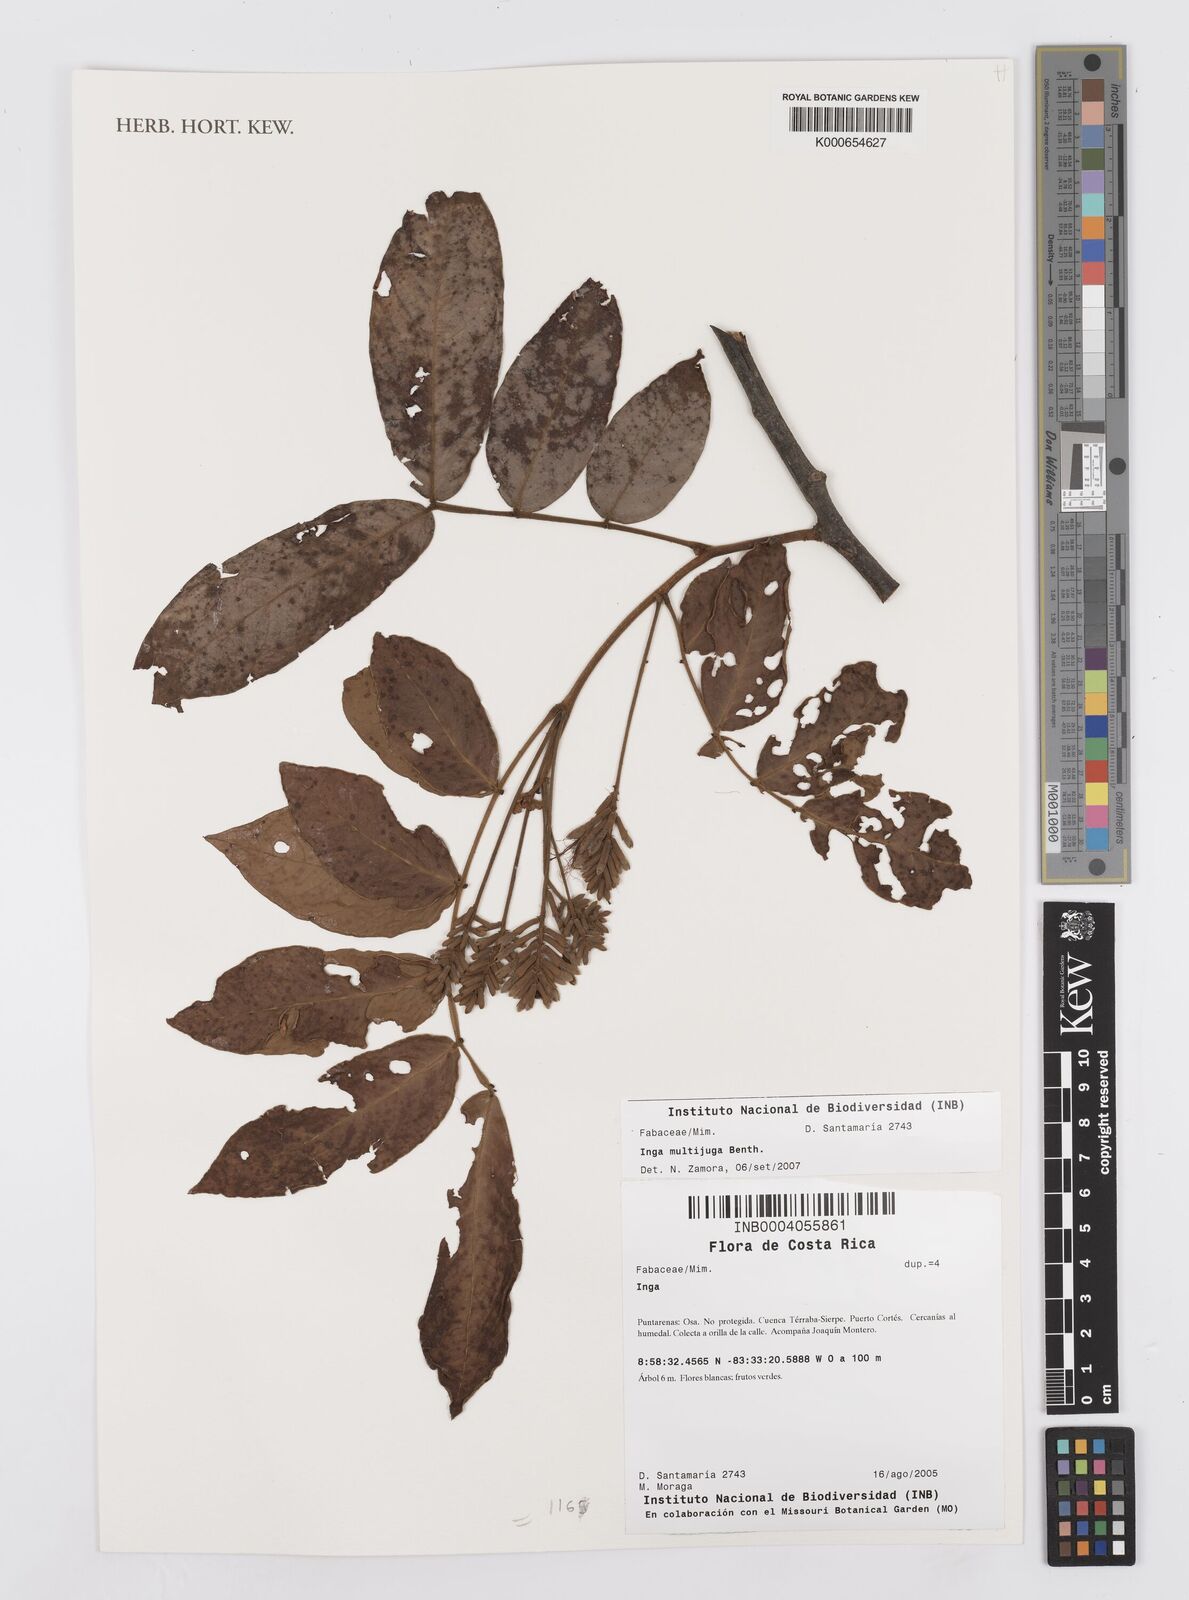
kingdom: Plantae
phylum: Tracheophyta
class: Magnoliopsida
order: Fabales
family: Fabaceae
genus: Inga
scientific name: Inga multijuga
